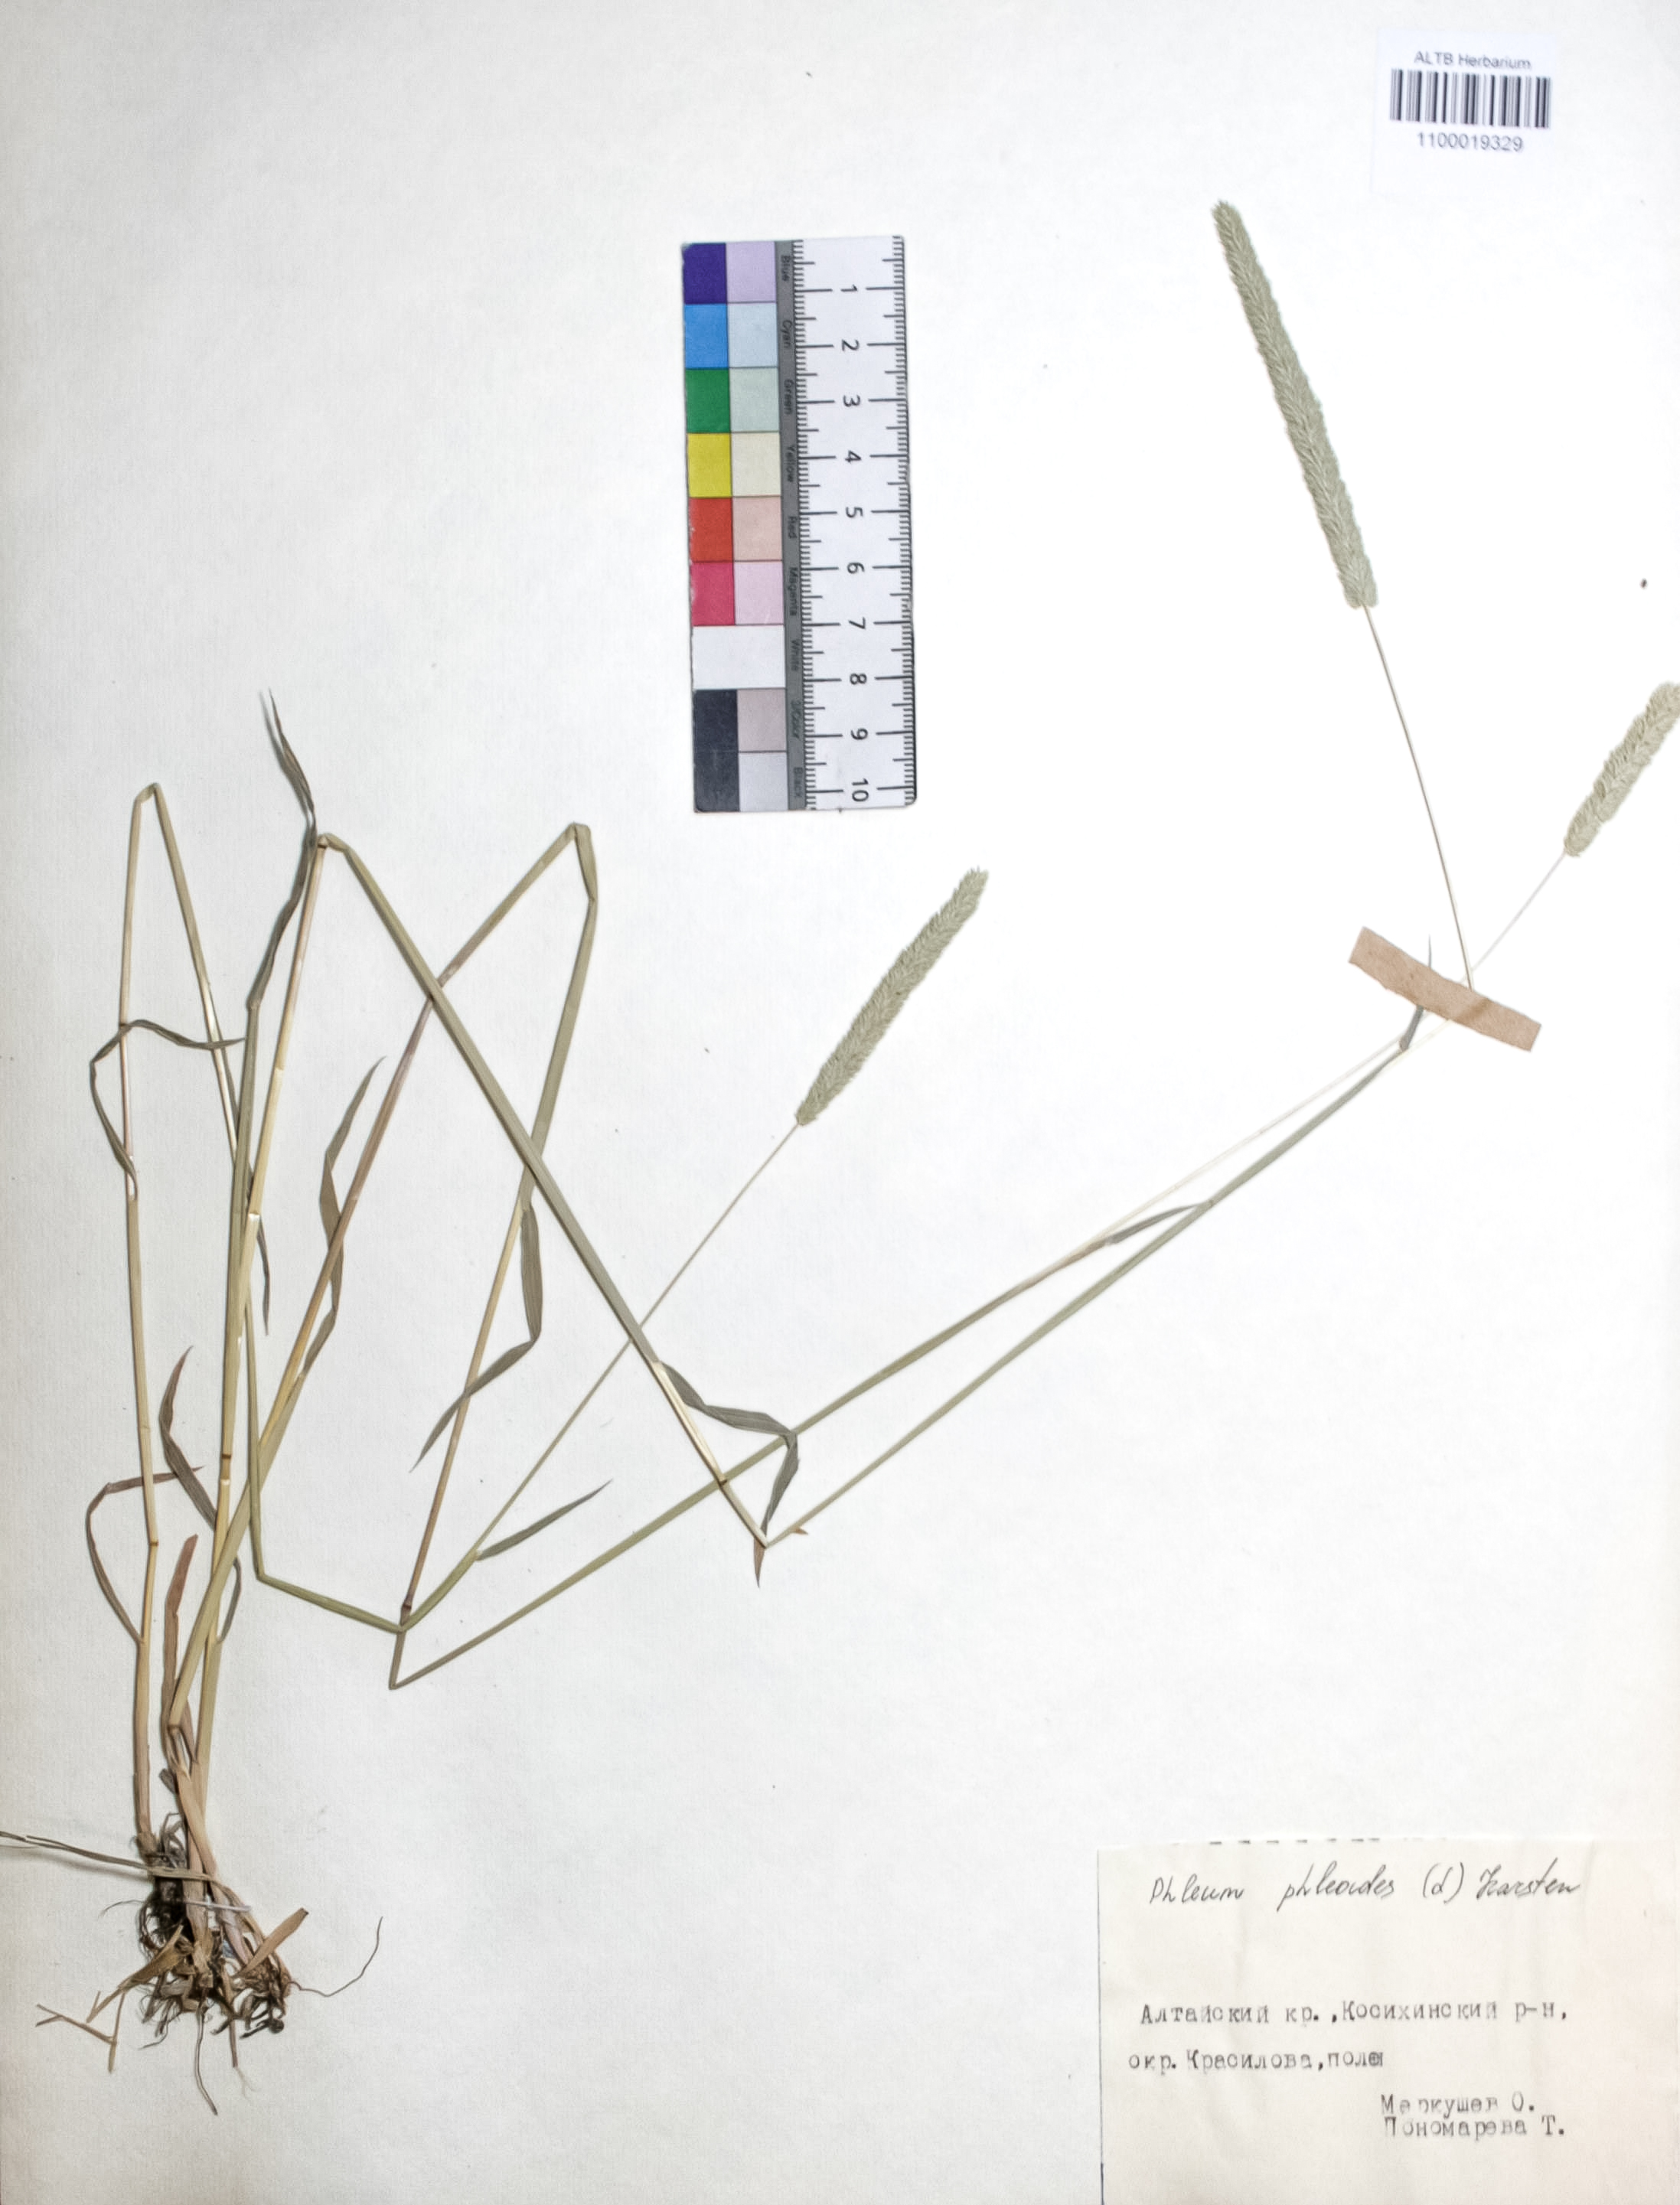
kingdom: Plantae
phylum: Tracheophyta
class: Liliopsida
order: Poales
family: Poaceae
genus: Phleum
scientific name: Phleum phleoides
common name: Purple-stem cat's-tail
